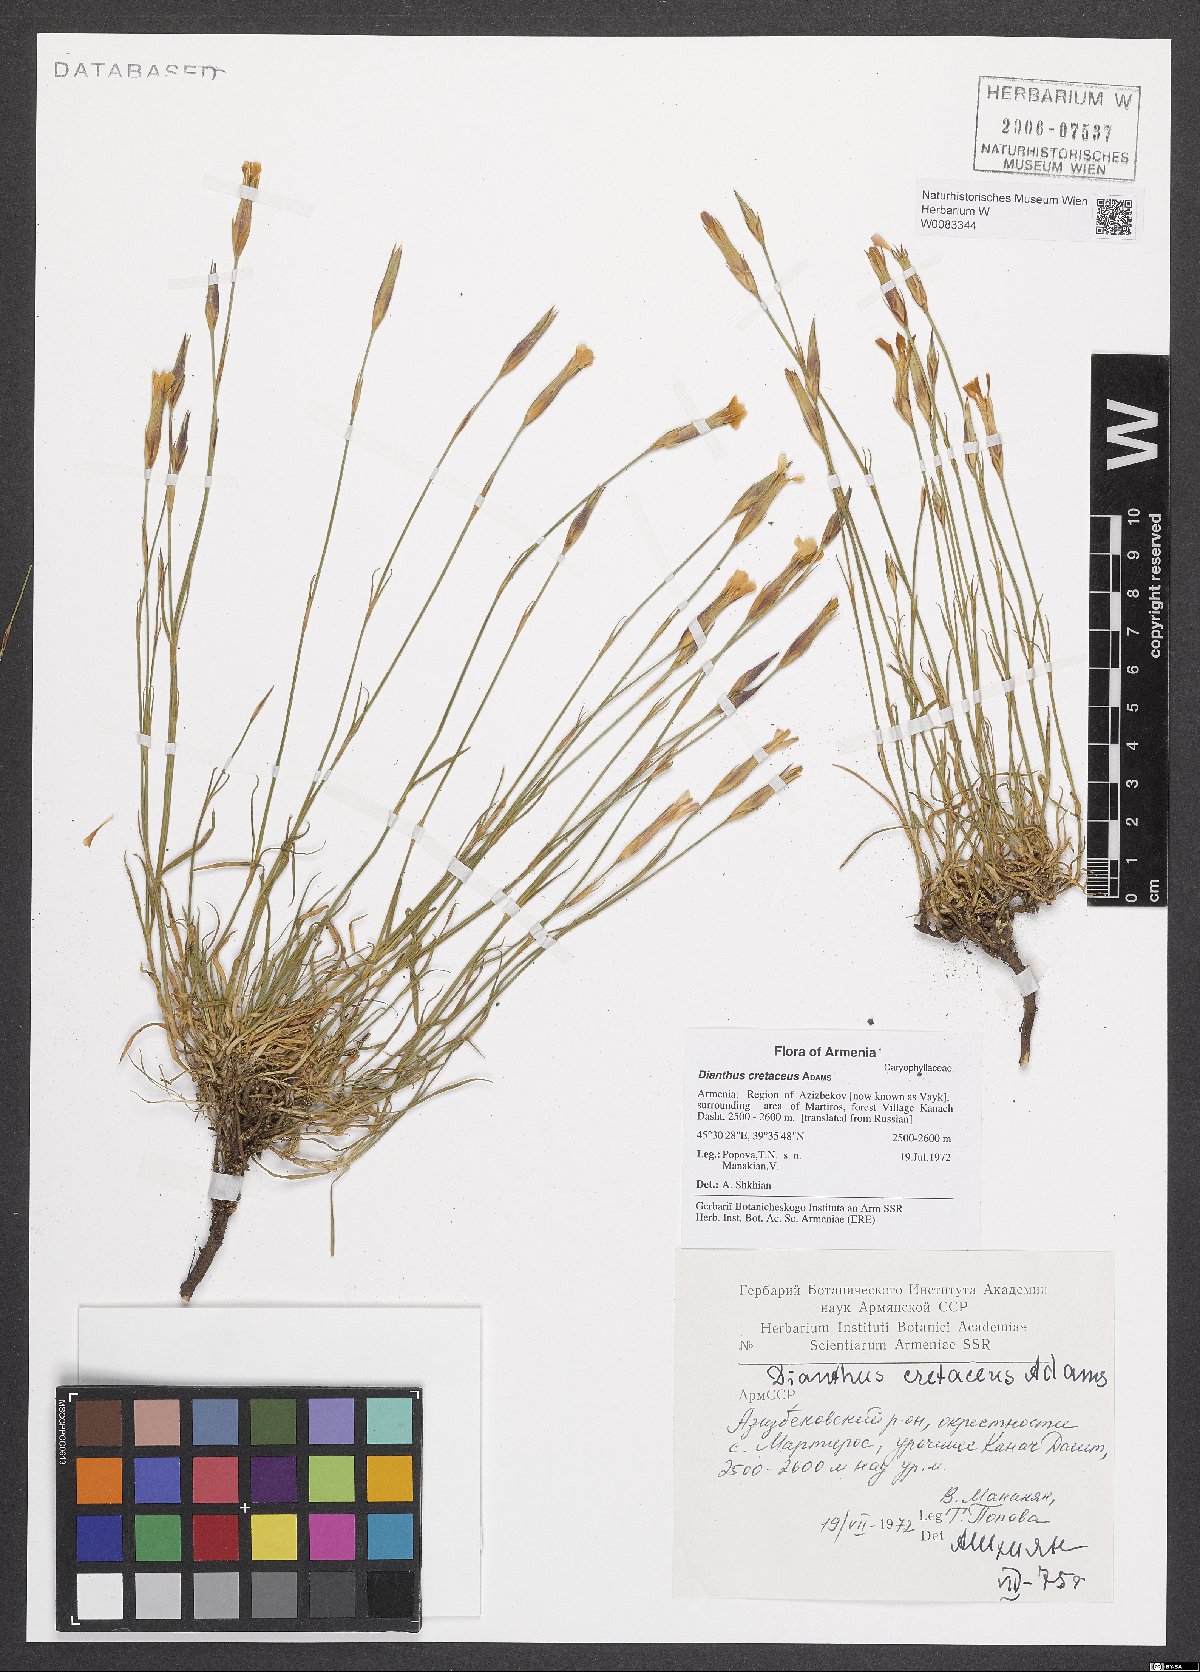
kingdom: Plantae
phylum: Tracheophyta
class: Magnoliopsida
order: Caryophyllales
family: Caryophyllaceae
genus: Dianthus
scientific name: Dianthus cretaceus
